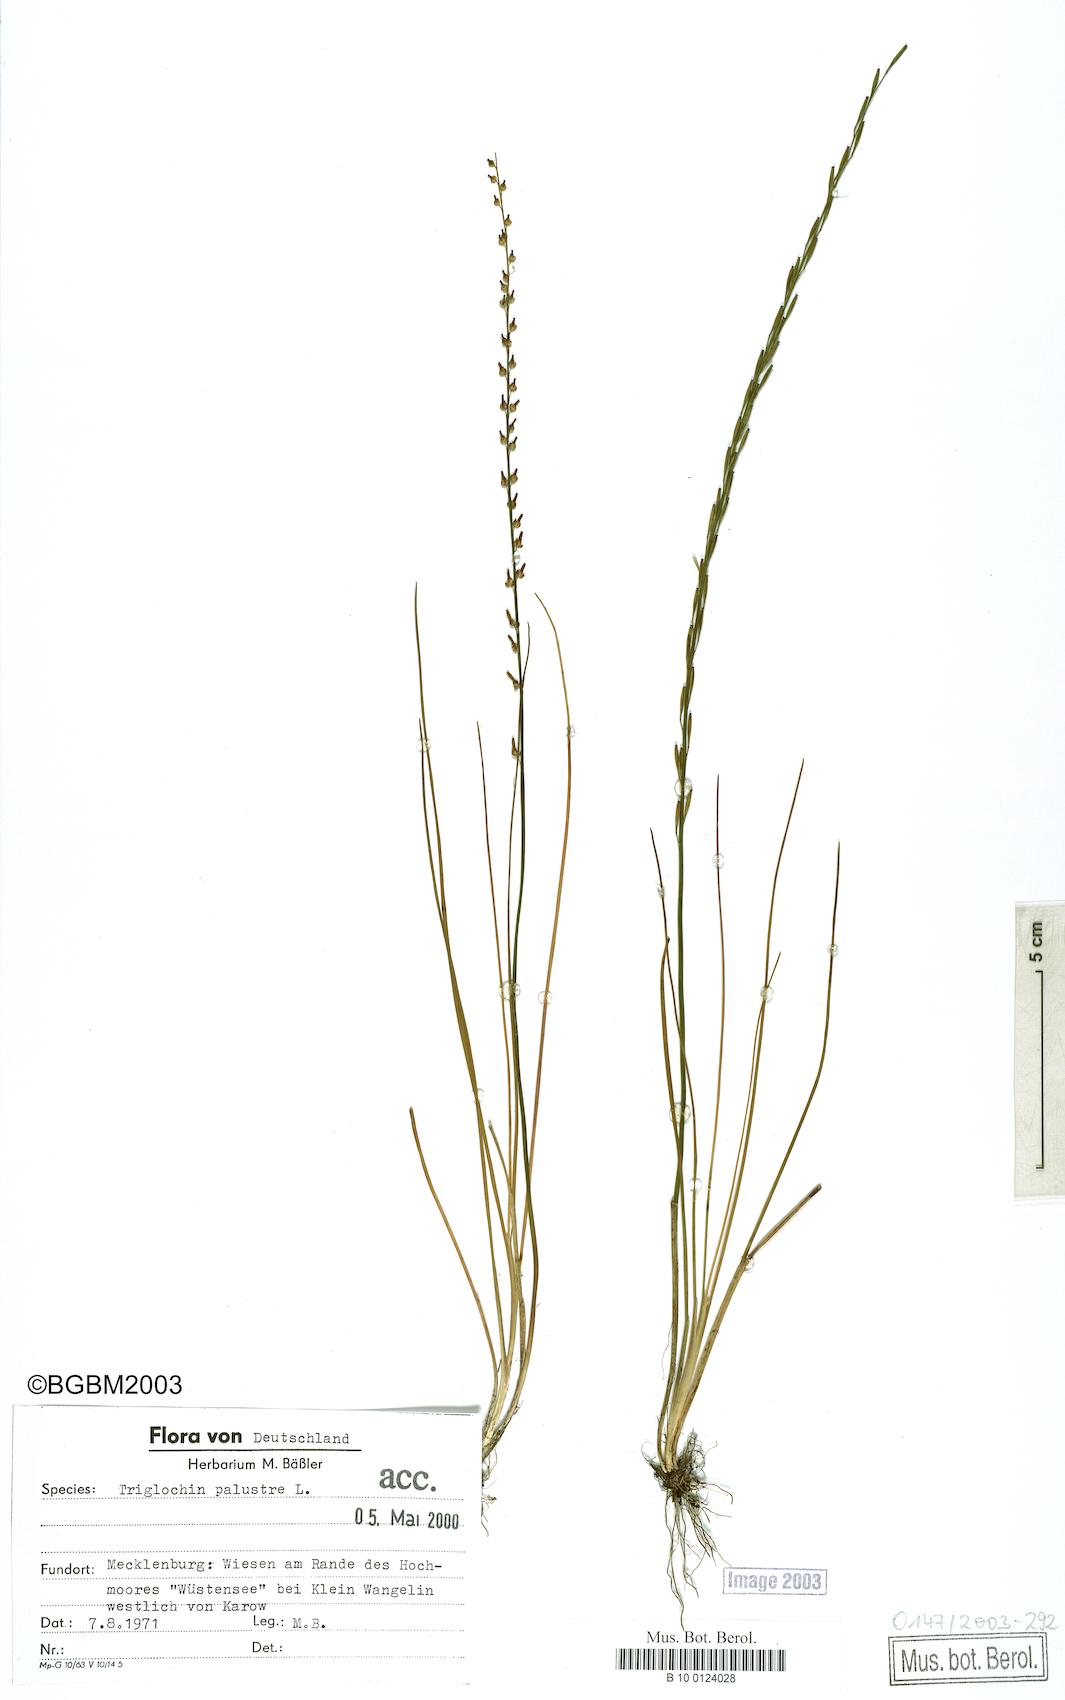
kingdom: Plantae
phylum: Tracheophyta
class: Liliopsida
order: Alismatales
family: Juncaginaceae
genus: Triglochin
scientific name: Triglochin palustris
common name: Marsh arrowgrass
